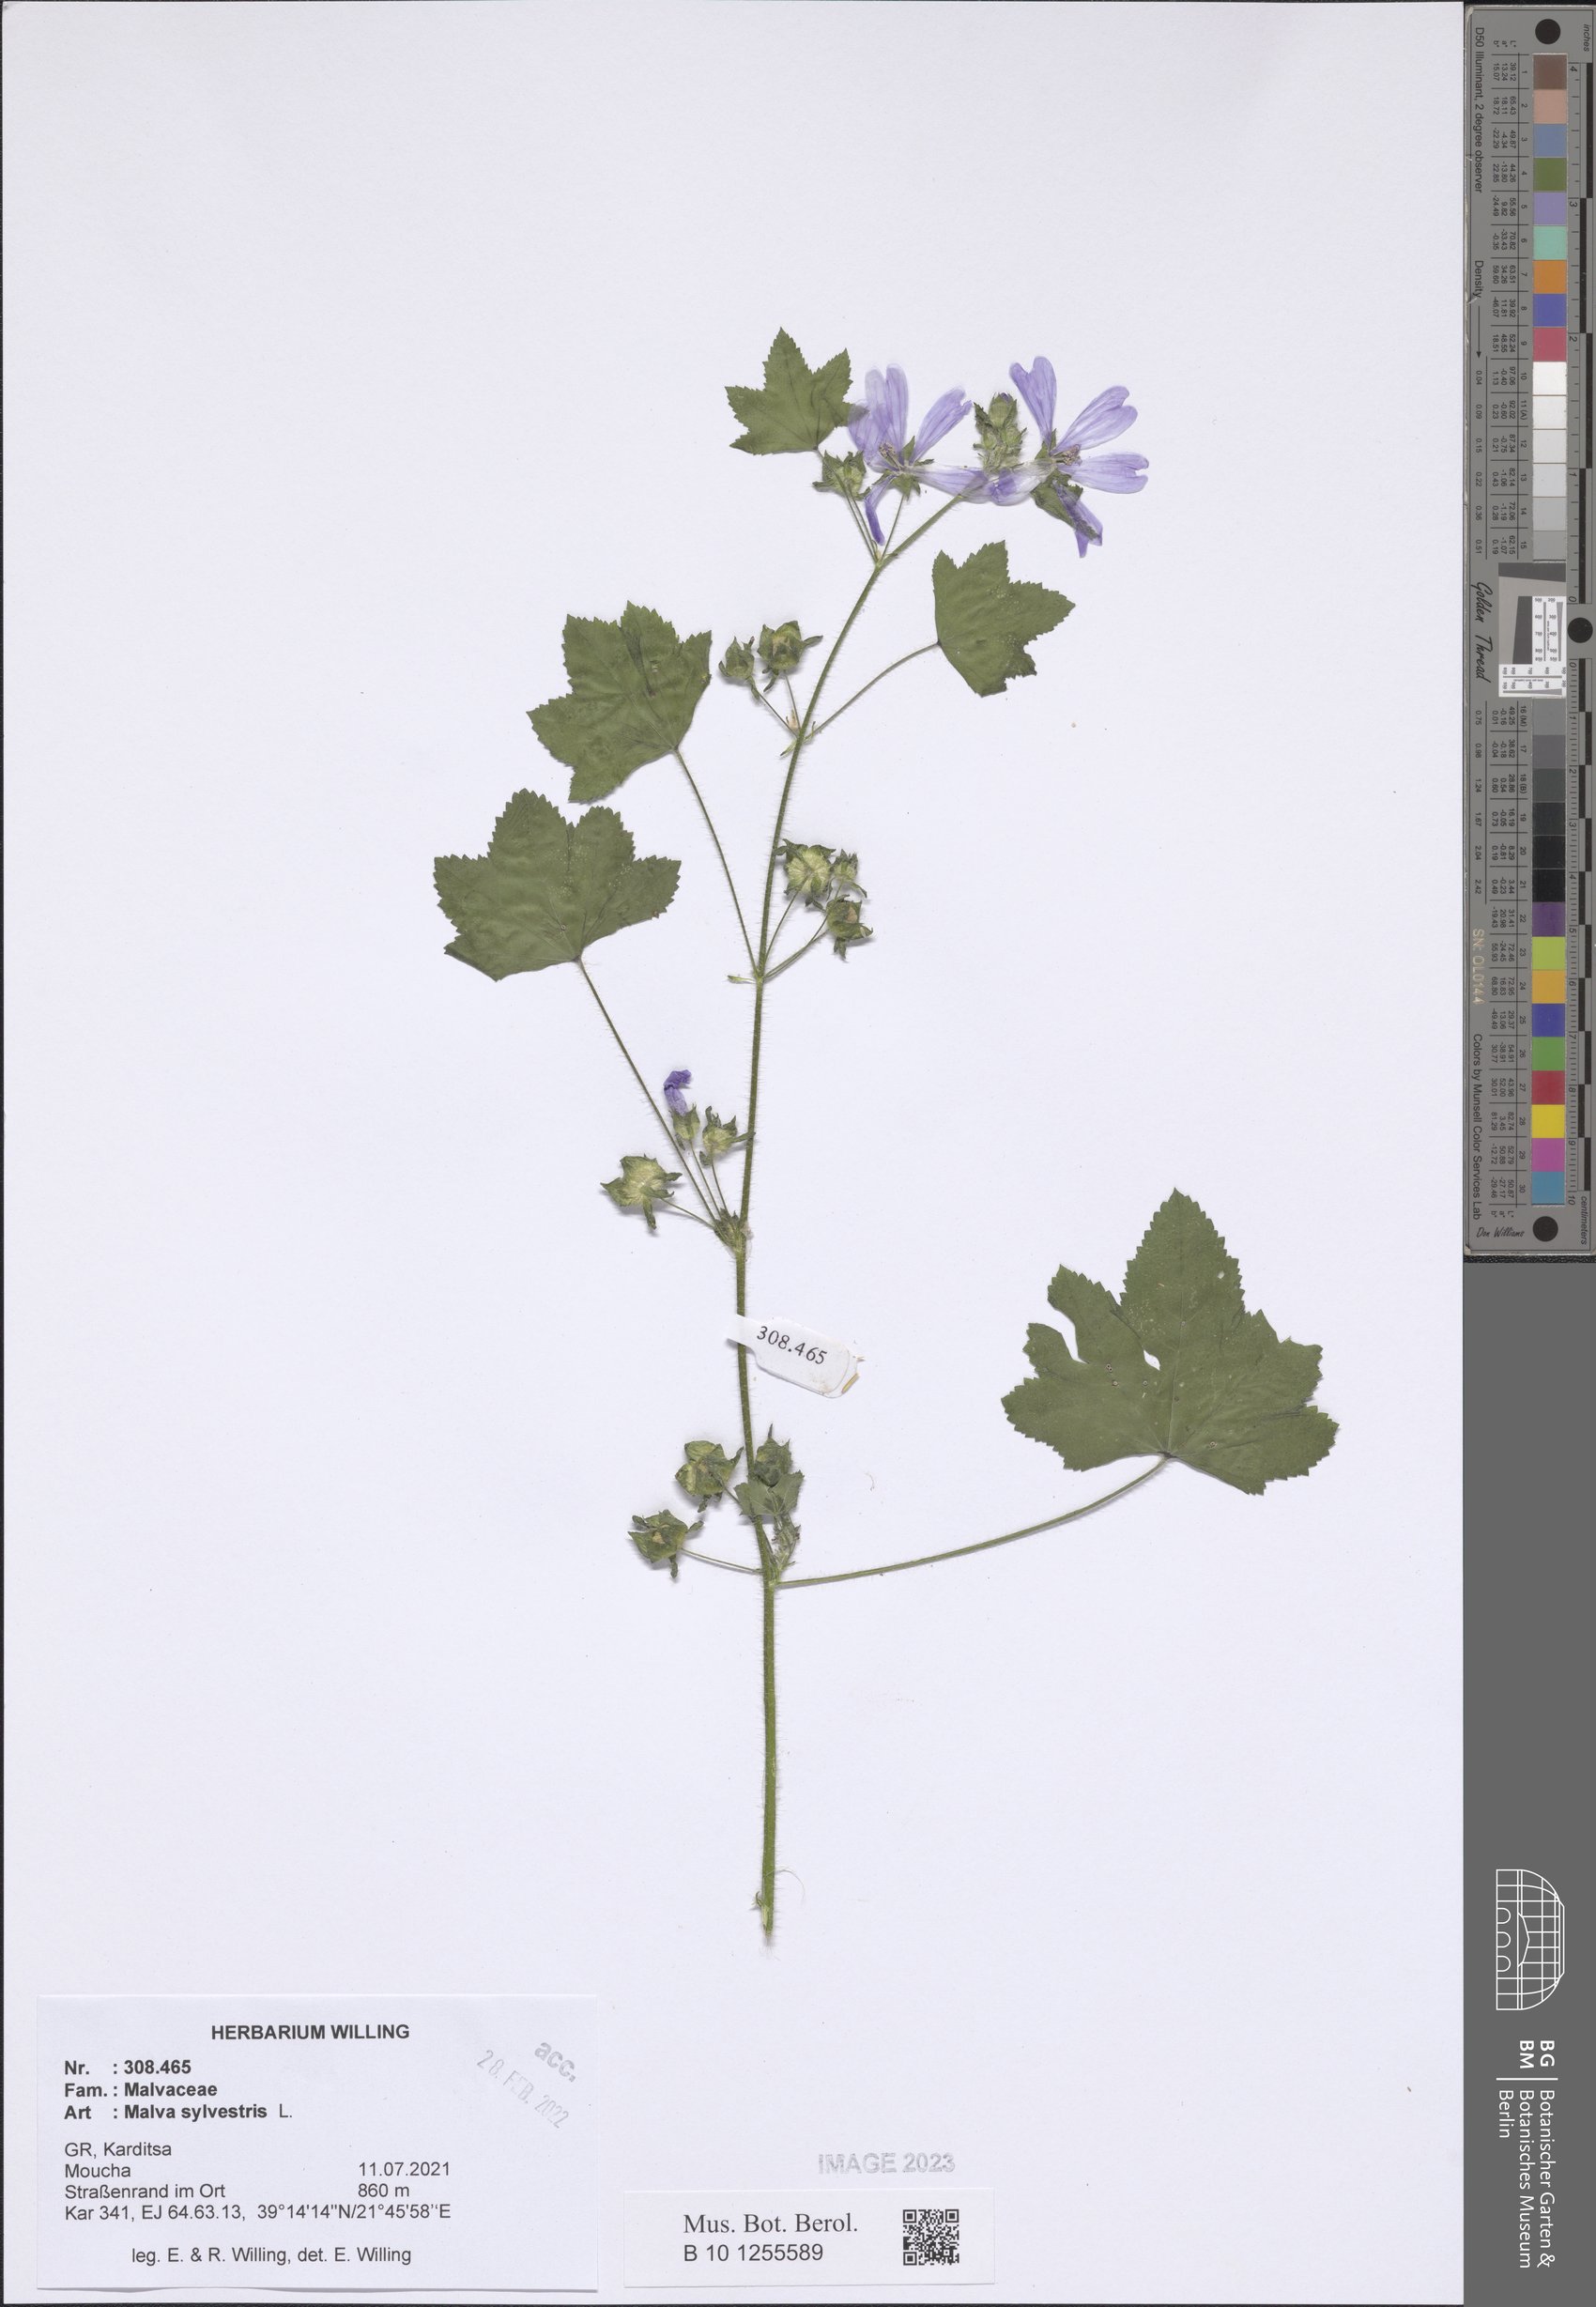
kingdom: Plantae
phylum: Tracheophyta
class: Magnoliopsida
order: Malvales
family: Malvaceae
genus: Malva
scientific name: Malva sylvestris
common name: Common mallow
